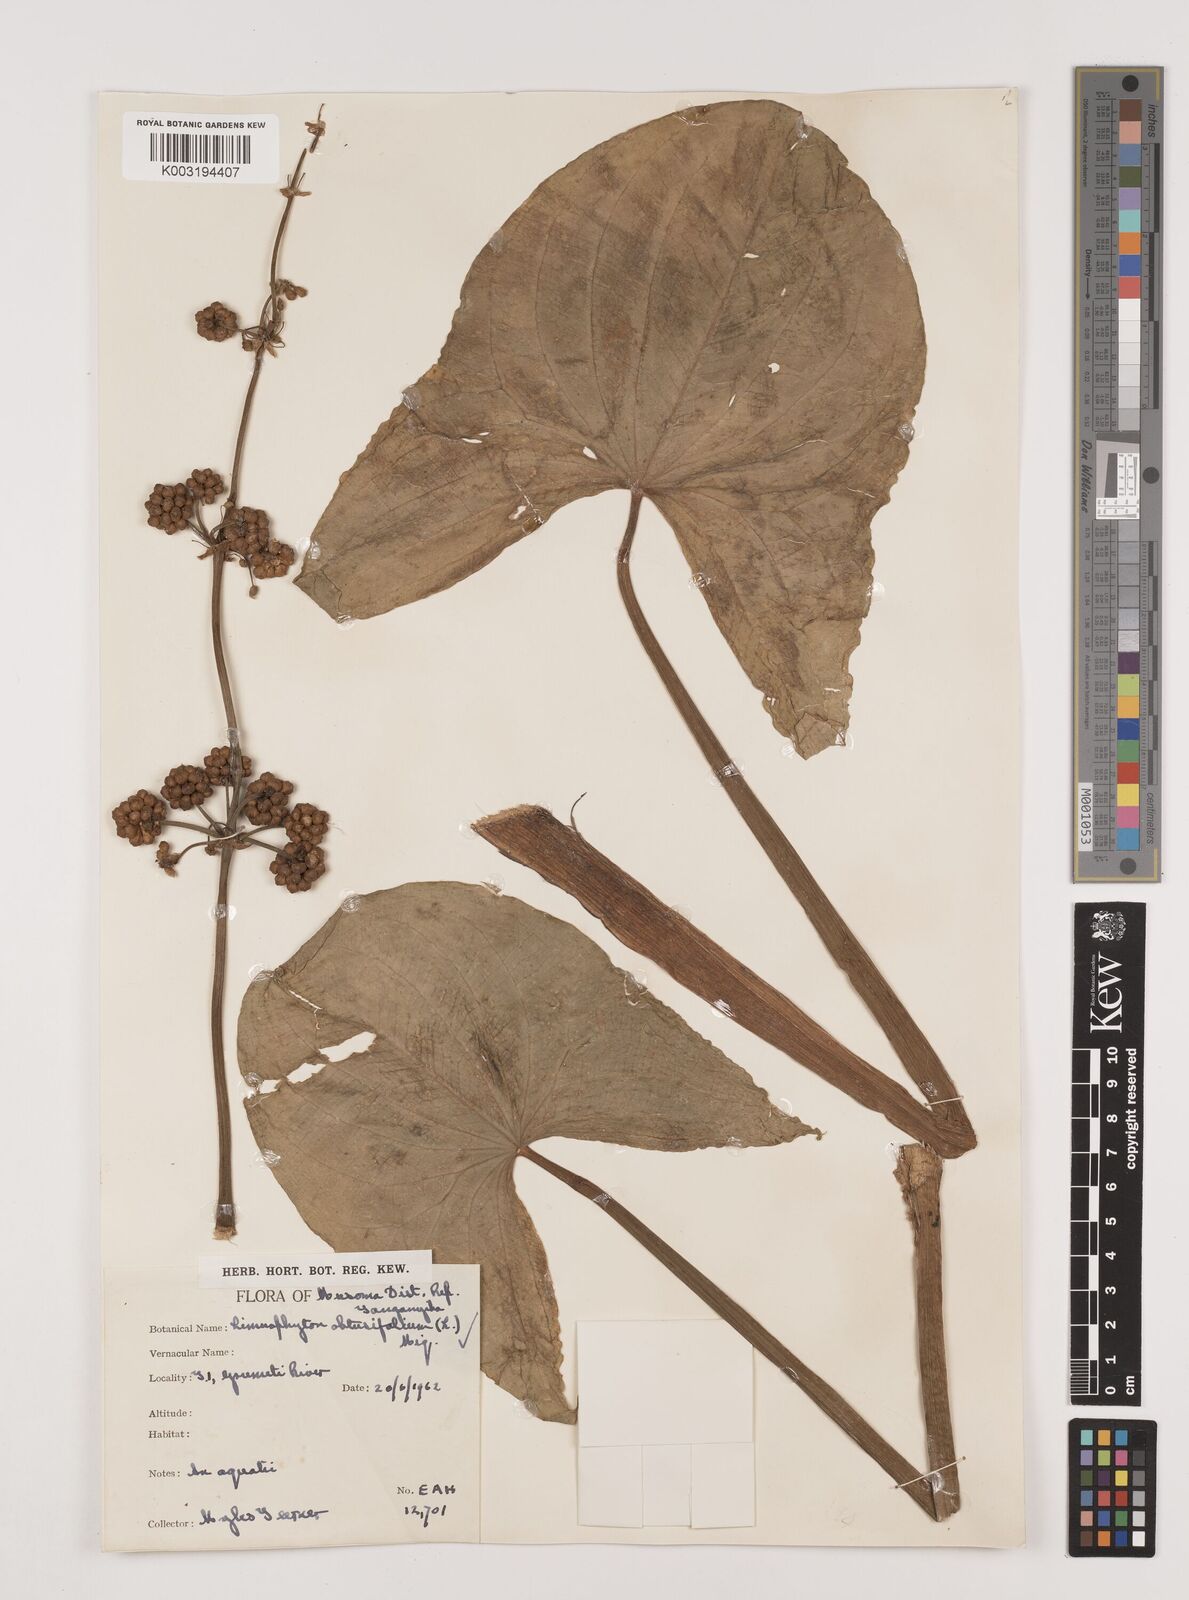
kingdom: Plantae
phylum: Tracheophyta
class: Liliopsida
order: Alismatales
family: Alismataceae
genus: Limnophyton
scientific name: Limnophyton obtusifolium
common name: Arrow head
